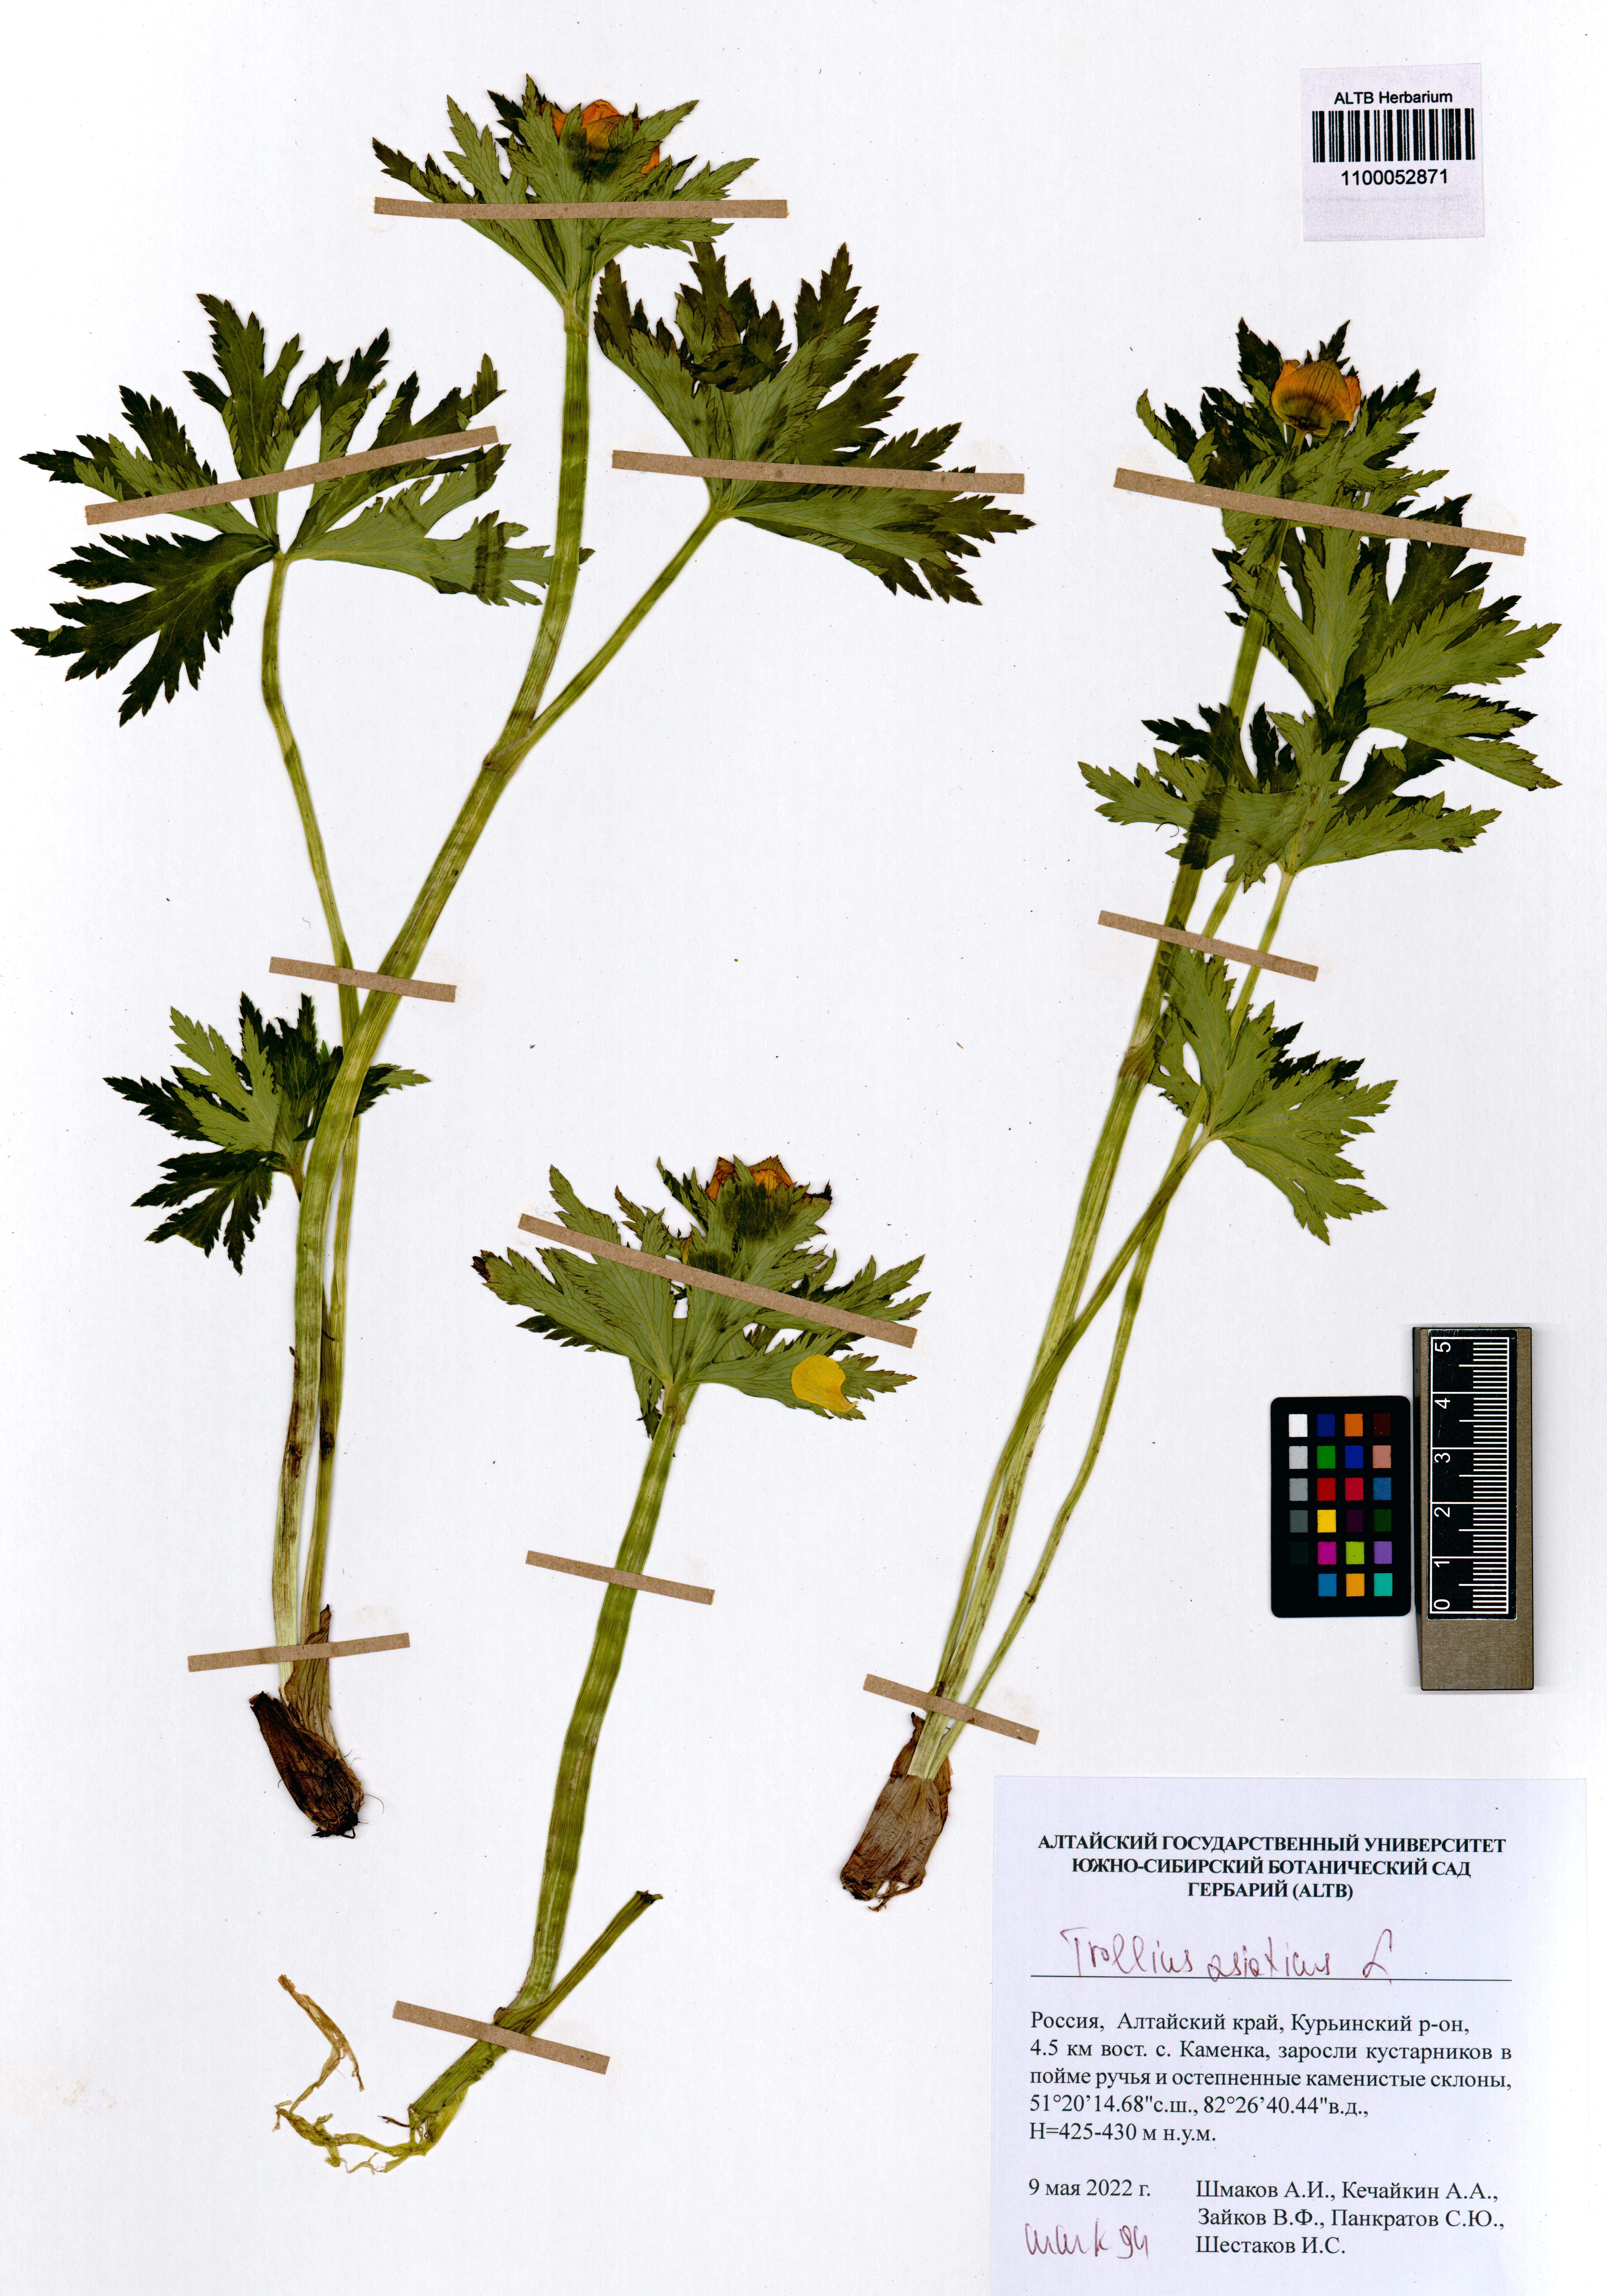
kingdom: Plantae
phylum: Tracheophyta
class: Magnoliopsida
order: Ranunculales
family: Ranunculaceae
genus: Trollius
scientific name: Trollius asiaticus
